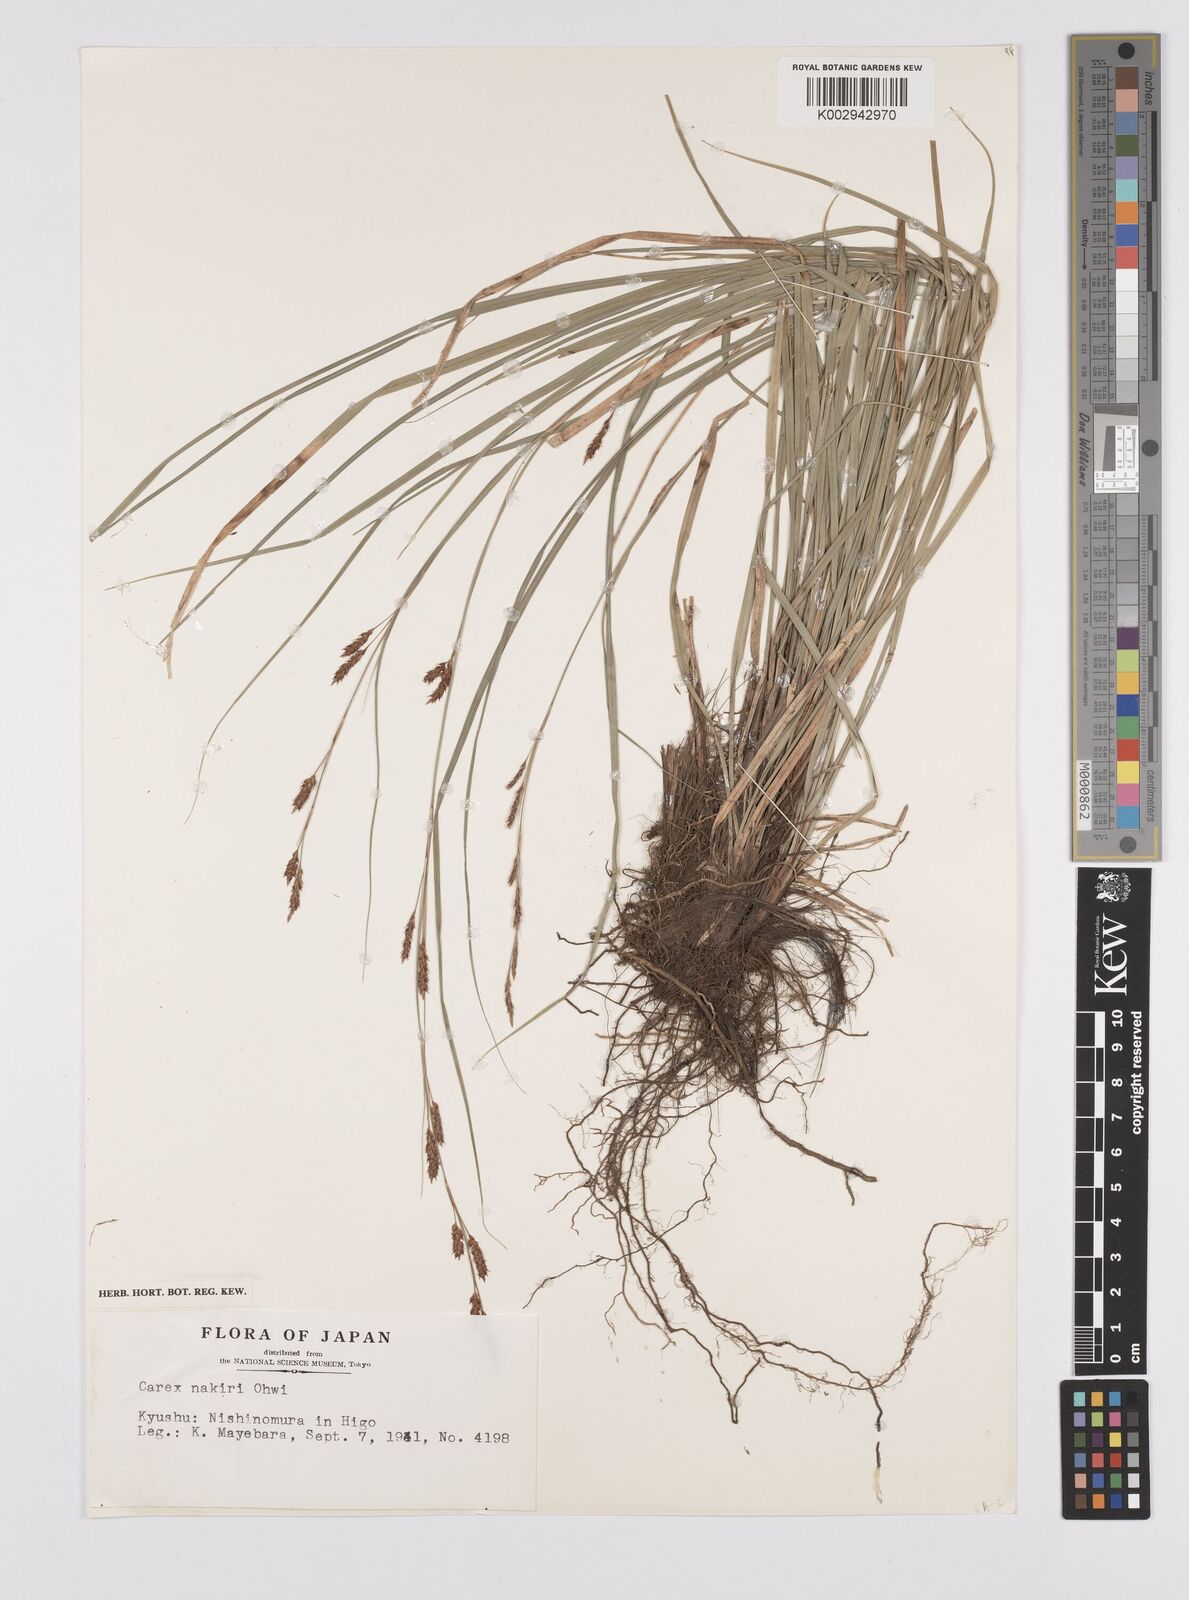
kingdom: Plantae
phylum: Tracheophyta
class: Liliopsida
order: Poales
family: Cyperaceae
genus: Carex
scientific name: Carex brunnea
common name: Greater brown sedge
